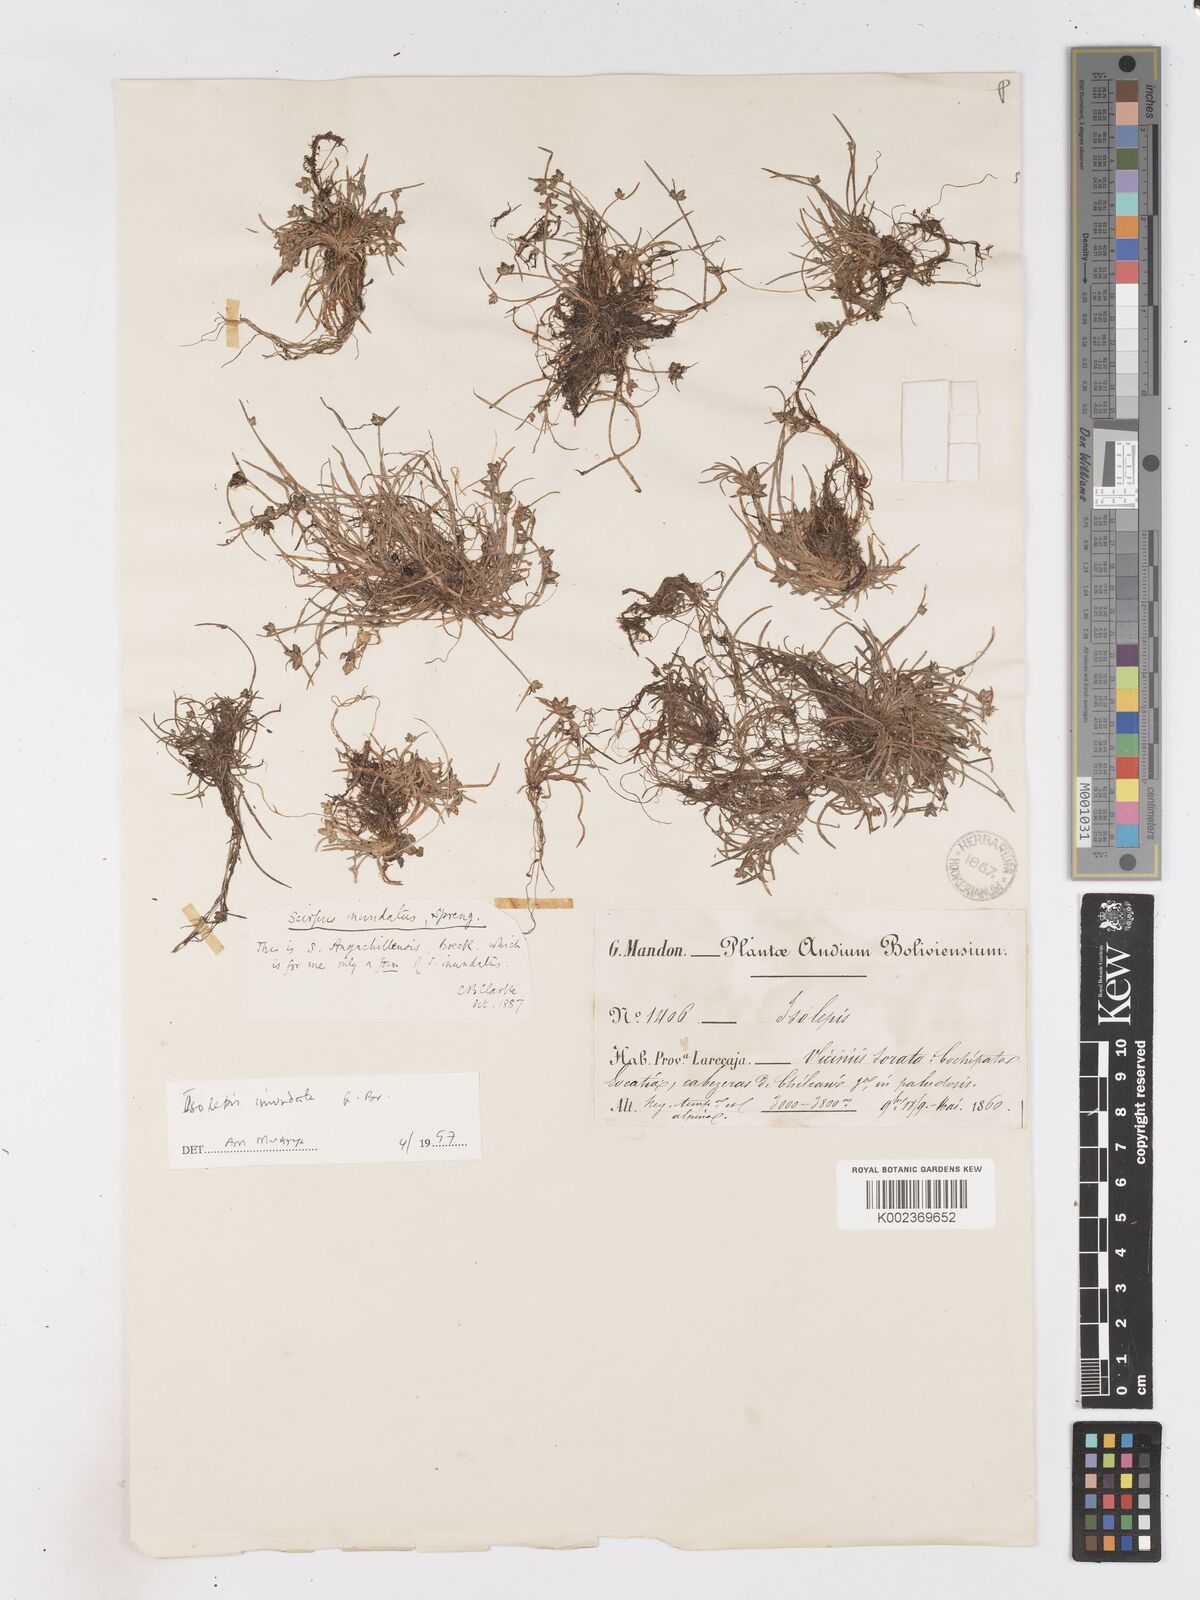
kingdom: Plantae
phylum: Tracheophyta
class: Liliopsida
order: Poales
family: Cyperaceae
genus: Isolepis
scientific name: Isolepis inundata
